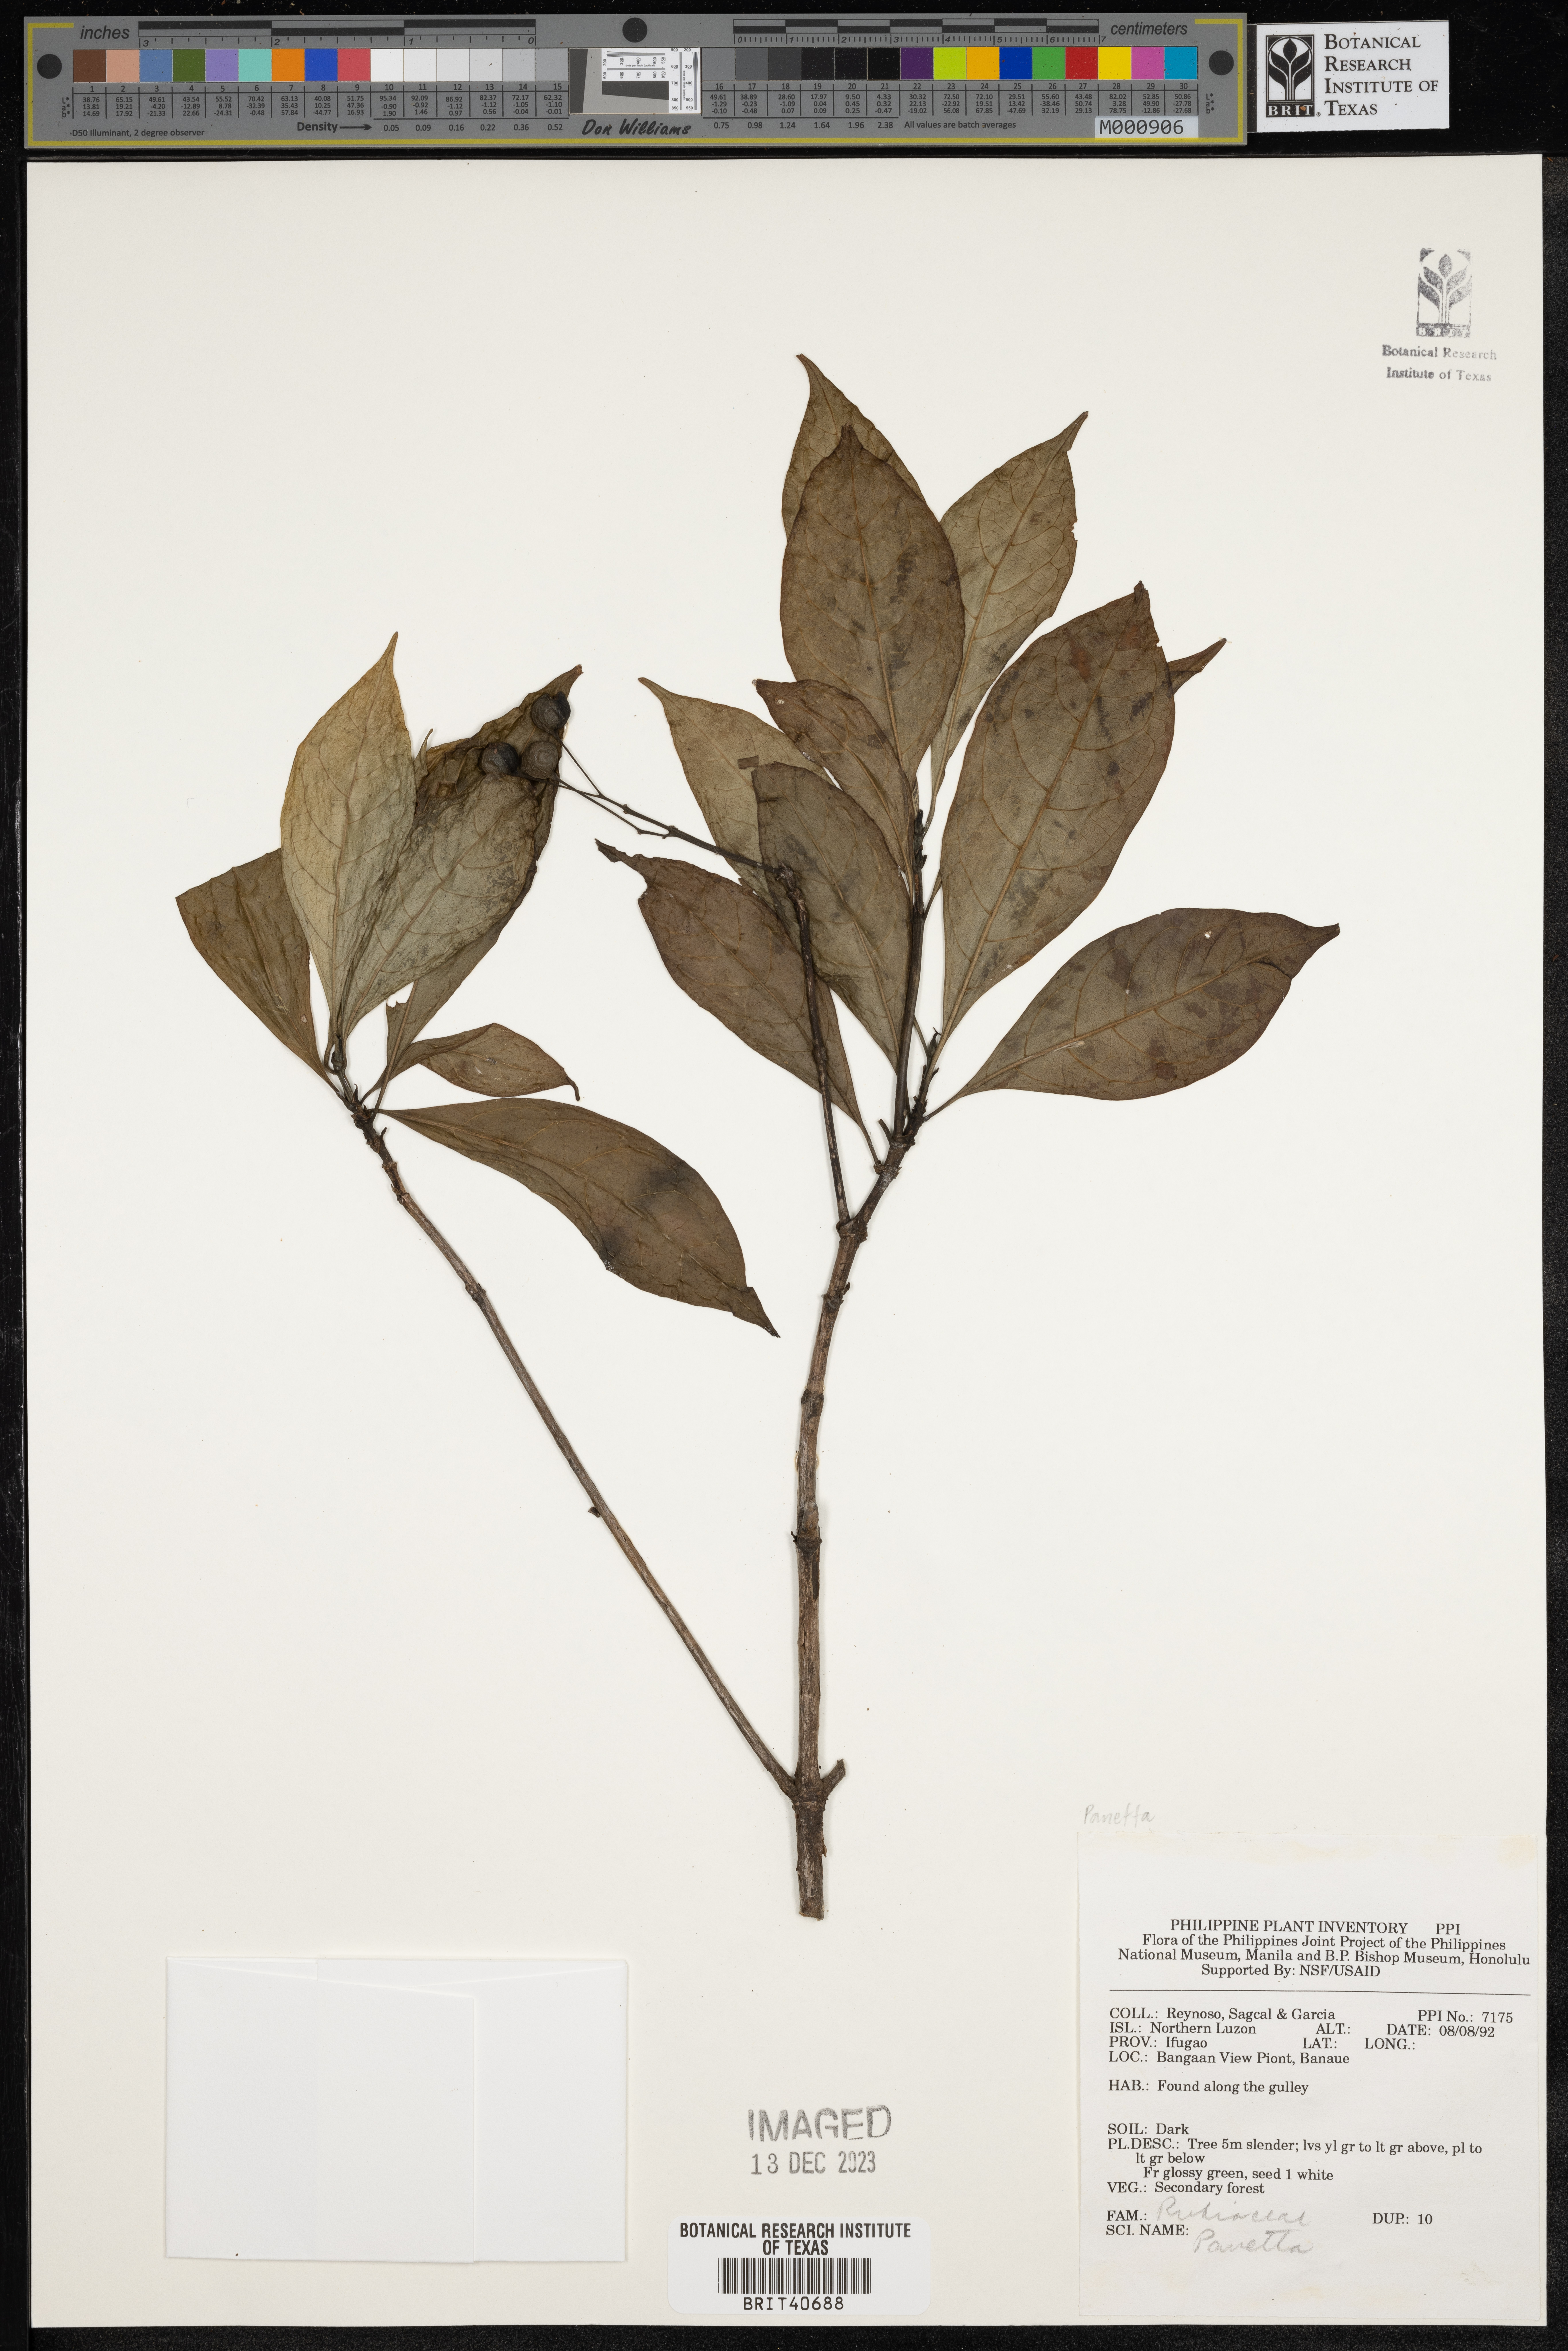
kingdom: Plantae
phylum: Tracheophyta
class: Magnoliopsida
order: Gentianales
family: Rubiaceae
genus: Pavetta
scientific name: Pavetta
